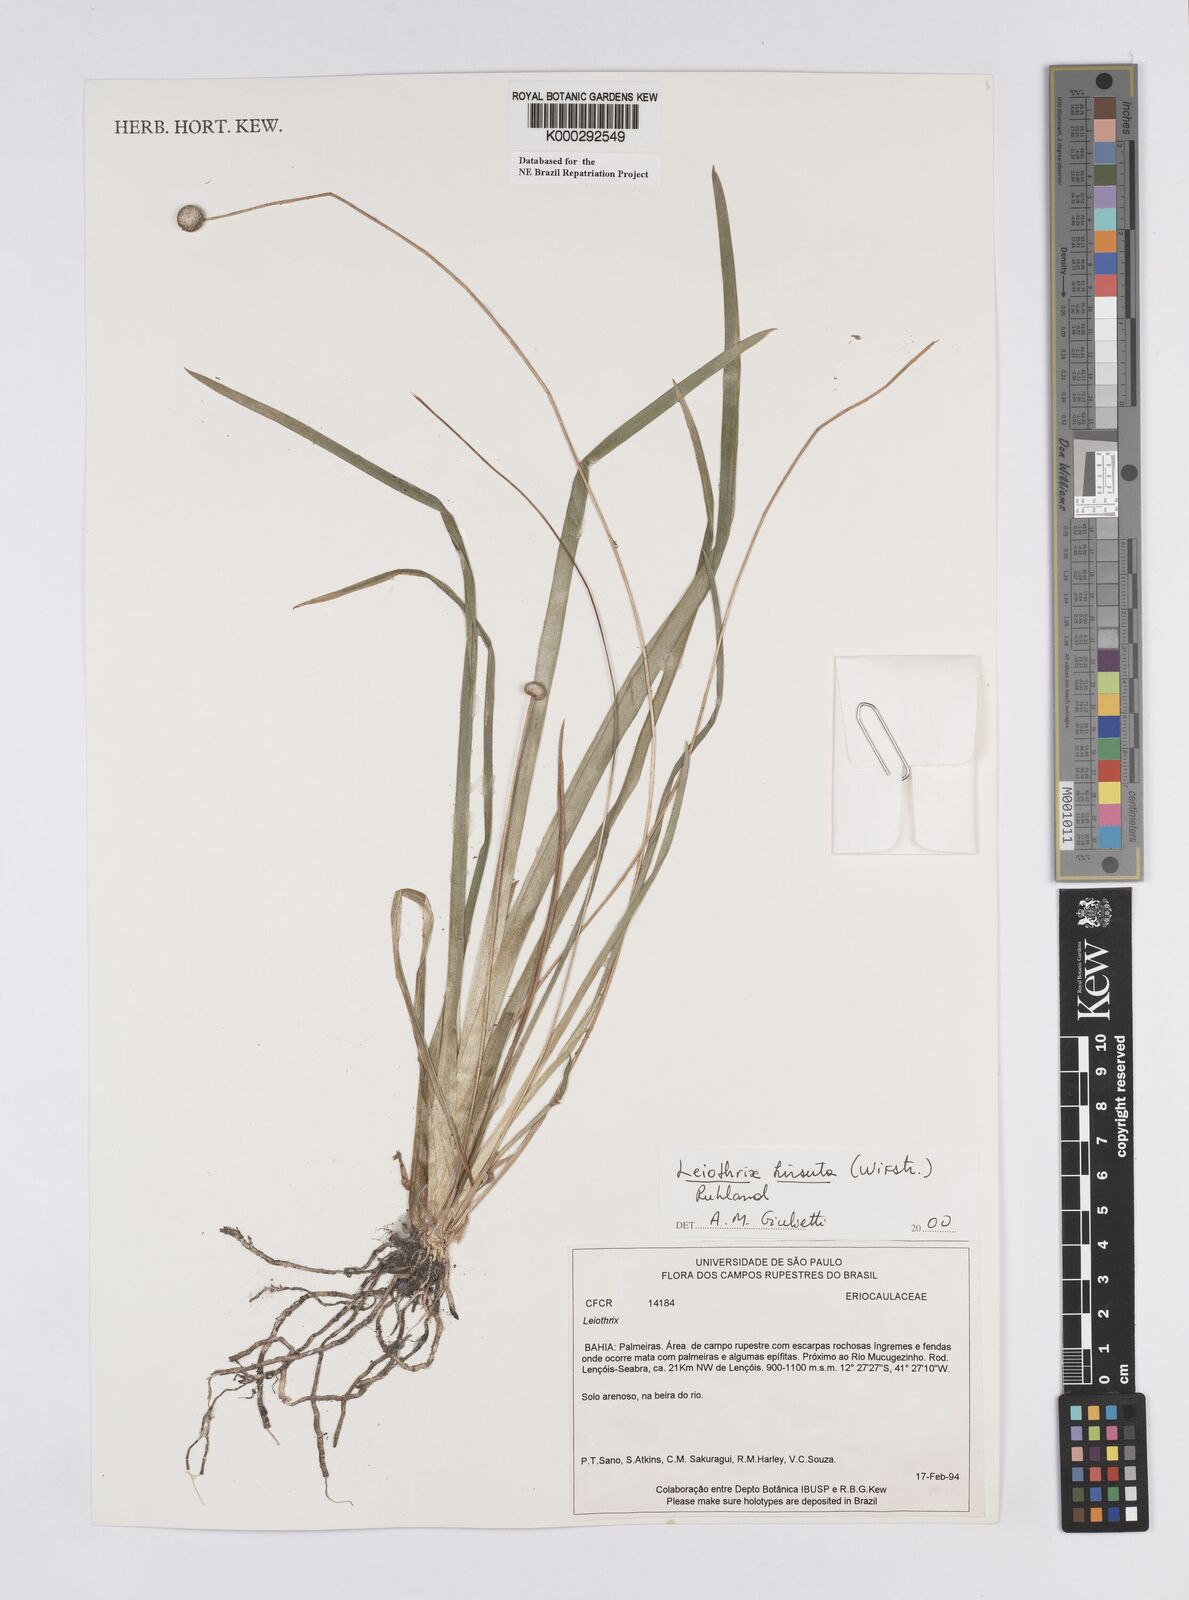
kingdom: Plantae
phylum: Tracheophyta
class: Liliopsida
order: Poales
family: Eriocaulaceae
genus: Leiothrix
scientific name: Leiothrix hirsuta
